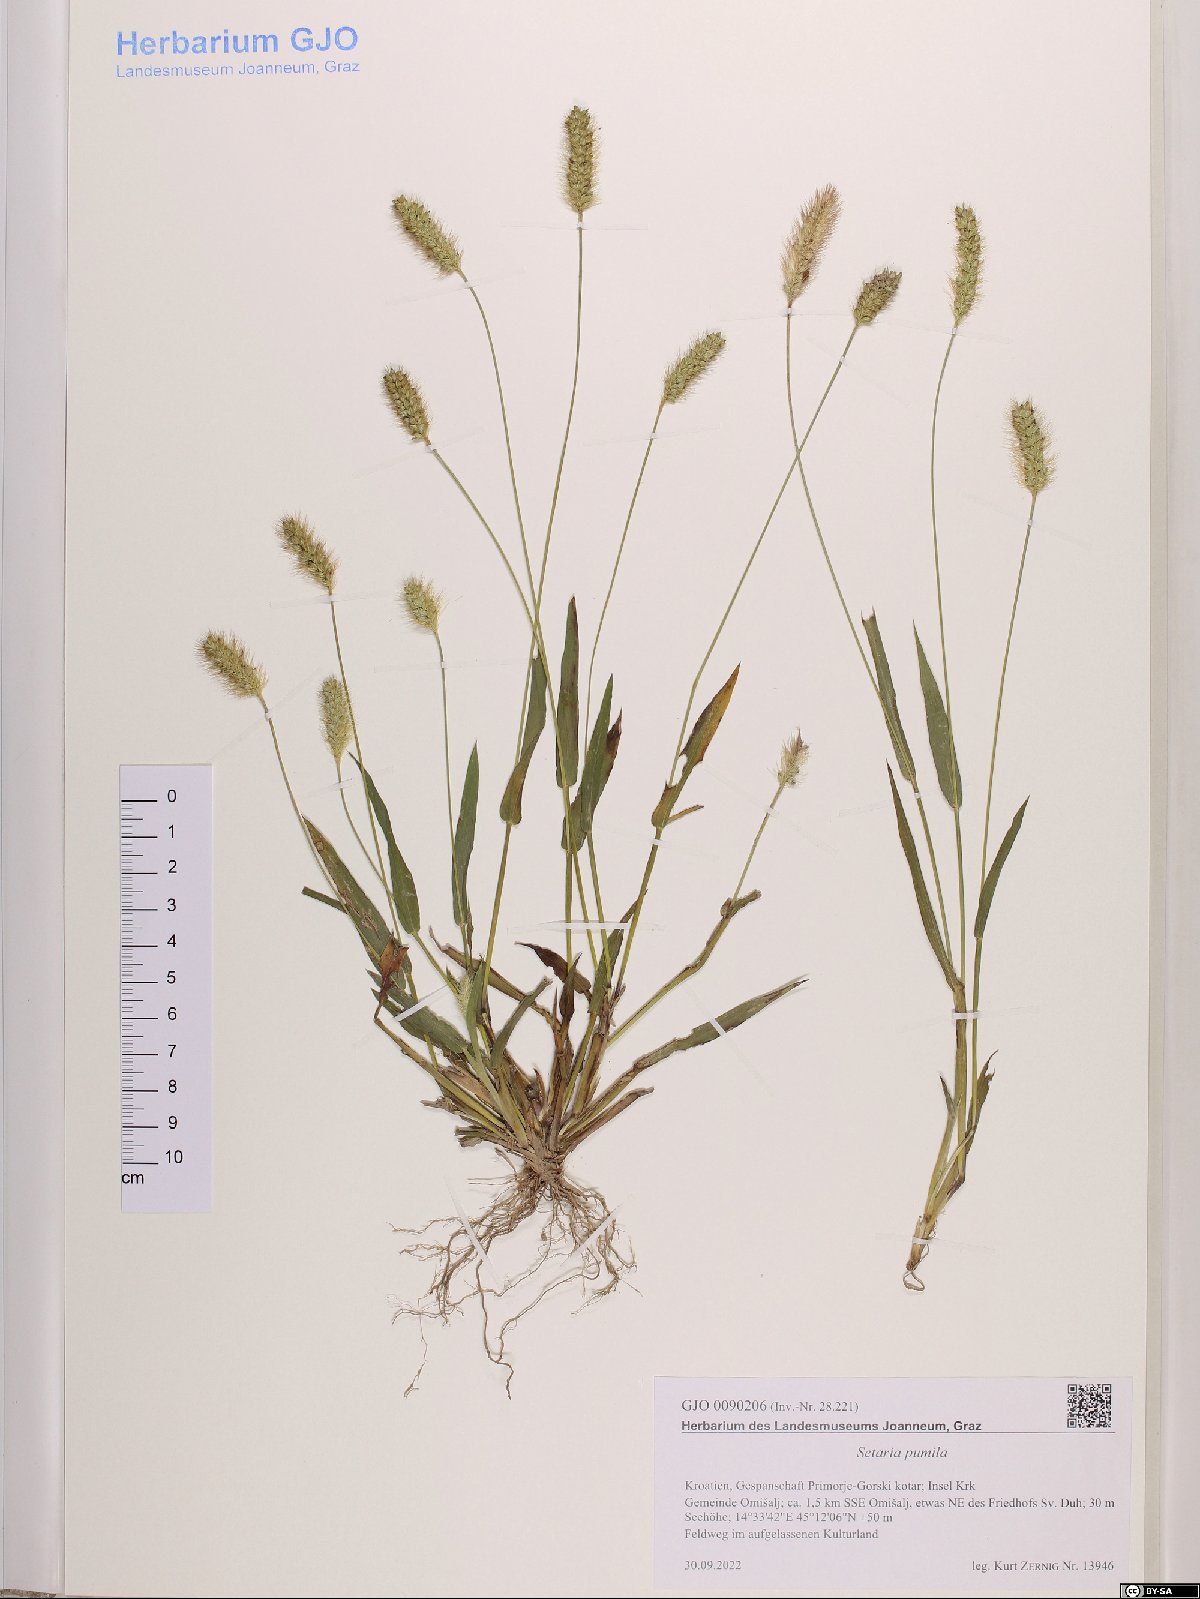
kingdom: Plantae
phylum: Tracheophyta
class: Liliopsida
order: Poales
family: Poaceae
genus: Setaria
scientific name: Setaria pumila
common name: Yellow bristle-grass
